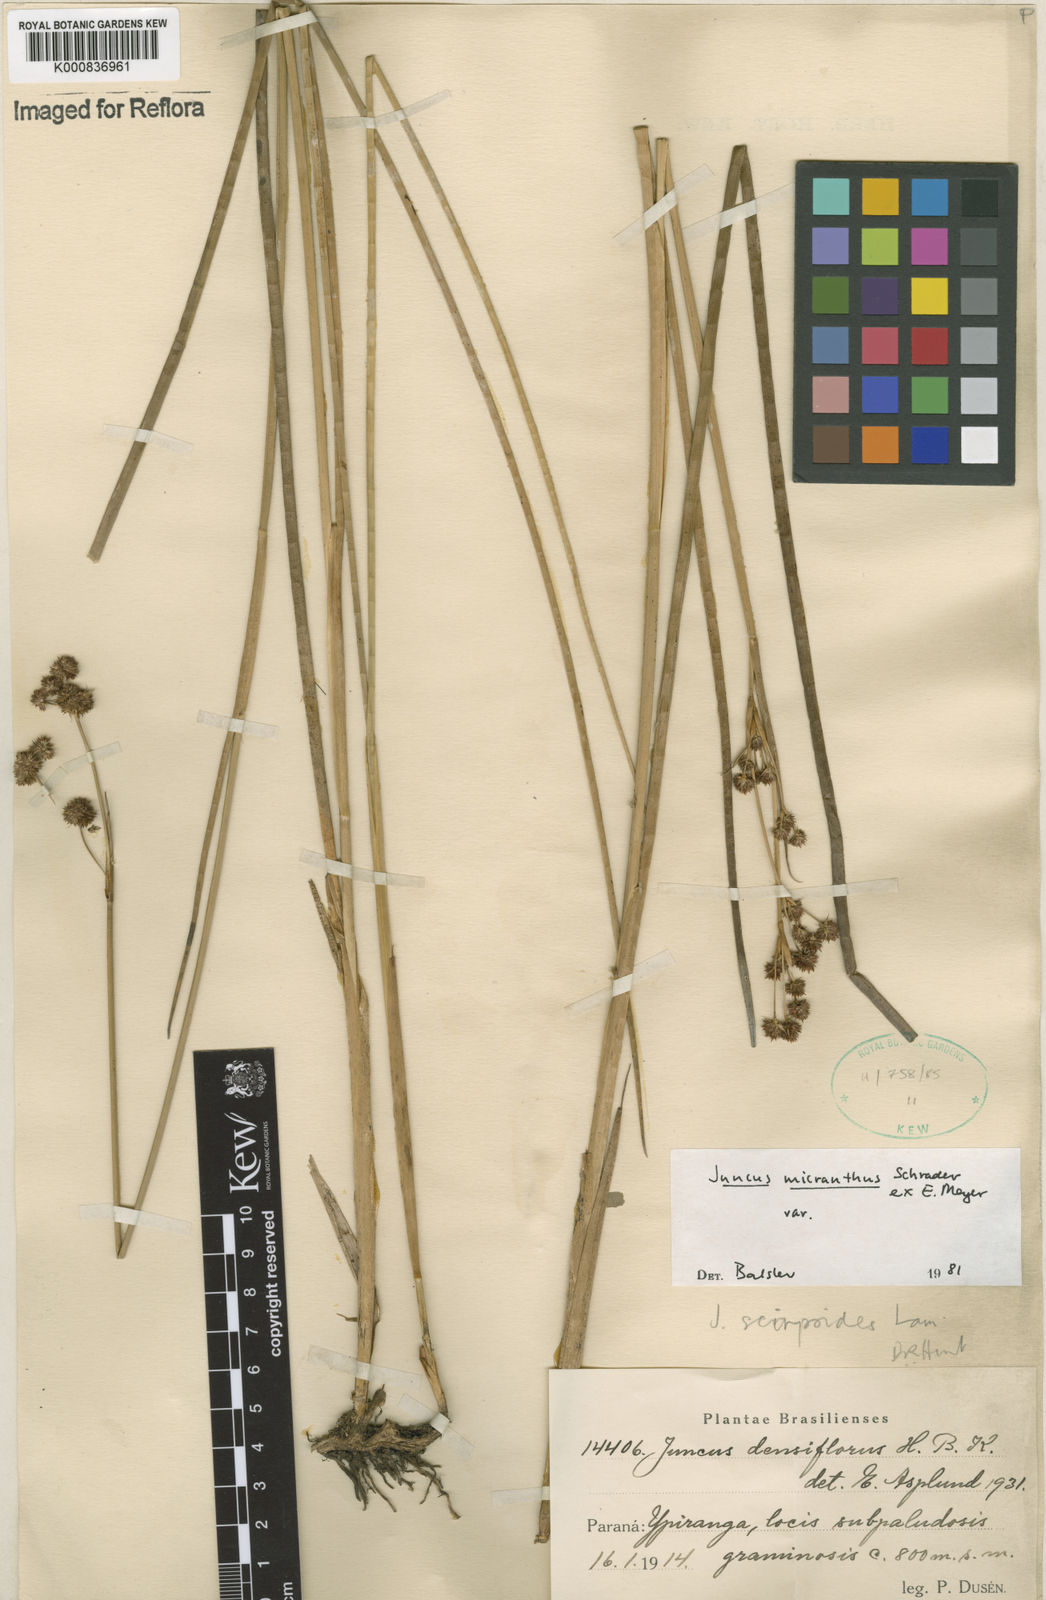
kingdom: Plantae
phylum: Tracheophyta
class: Liliopsida
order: Poales
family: Juncaceae
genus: Juncus
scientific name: Juncus
